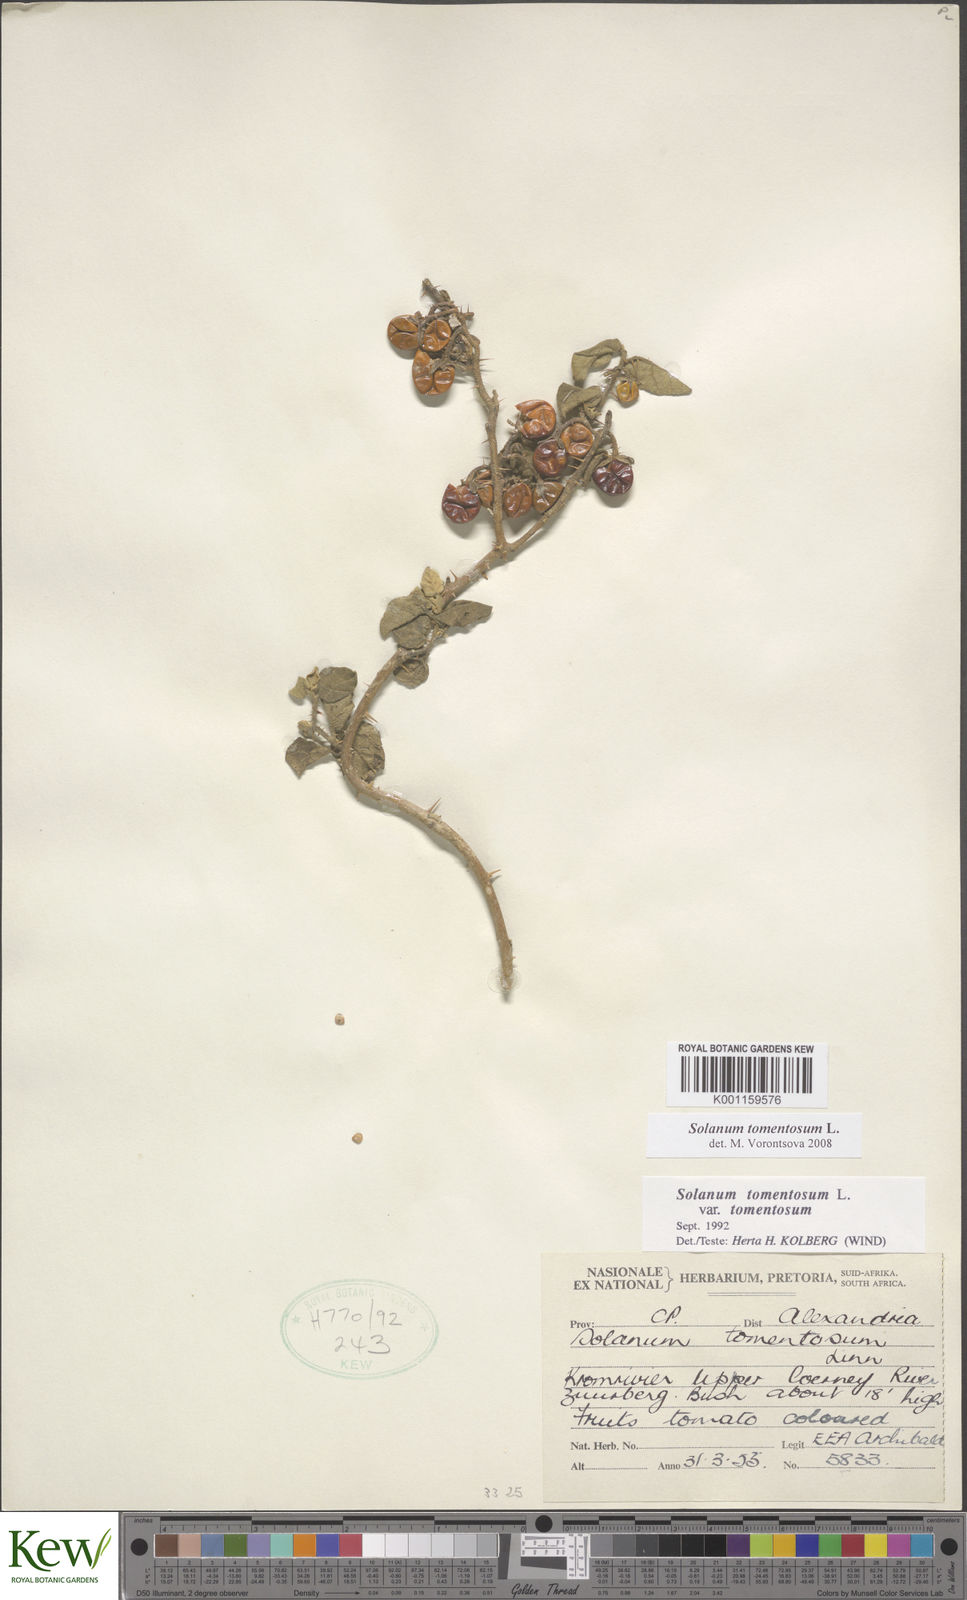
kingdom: Plantae
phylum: Tracheophyta
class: Magnoliopsida
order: Solanales
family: Solanaceae
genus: Solanum
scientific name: Solanum tomentosum
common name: Wild aubergine
